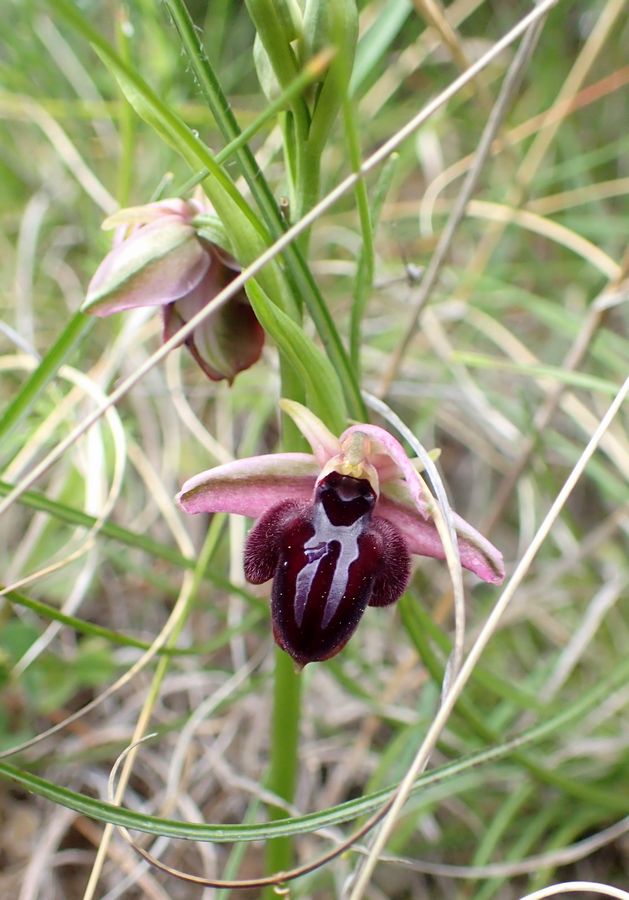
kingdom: Plantae
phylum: Tracheophyta
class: Liliopsida
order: Asparagales
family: Orchidaceae
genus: Ophrys
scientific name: Ophrys sphegodes
